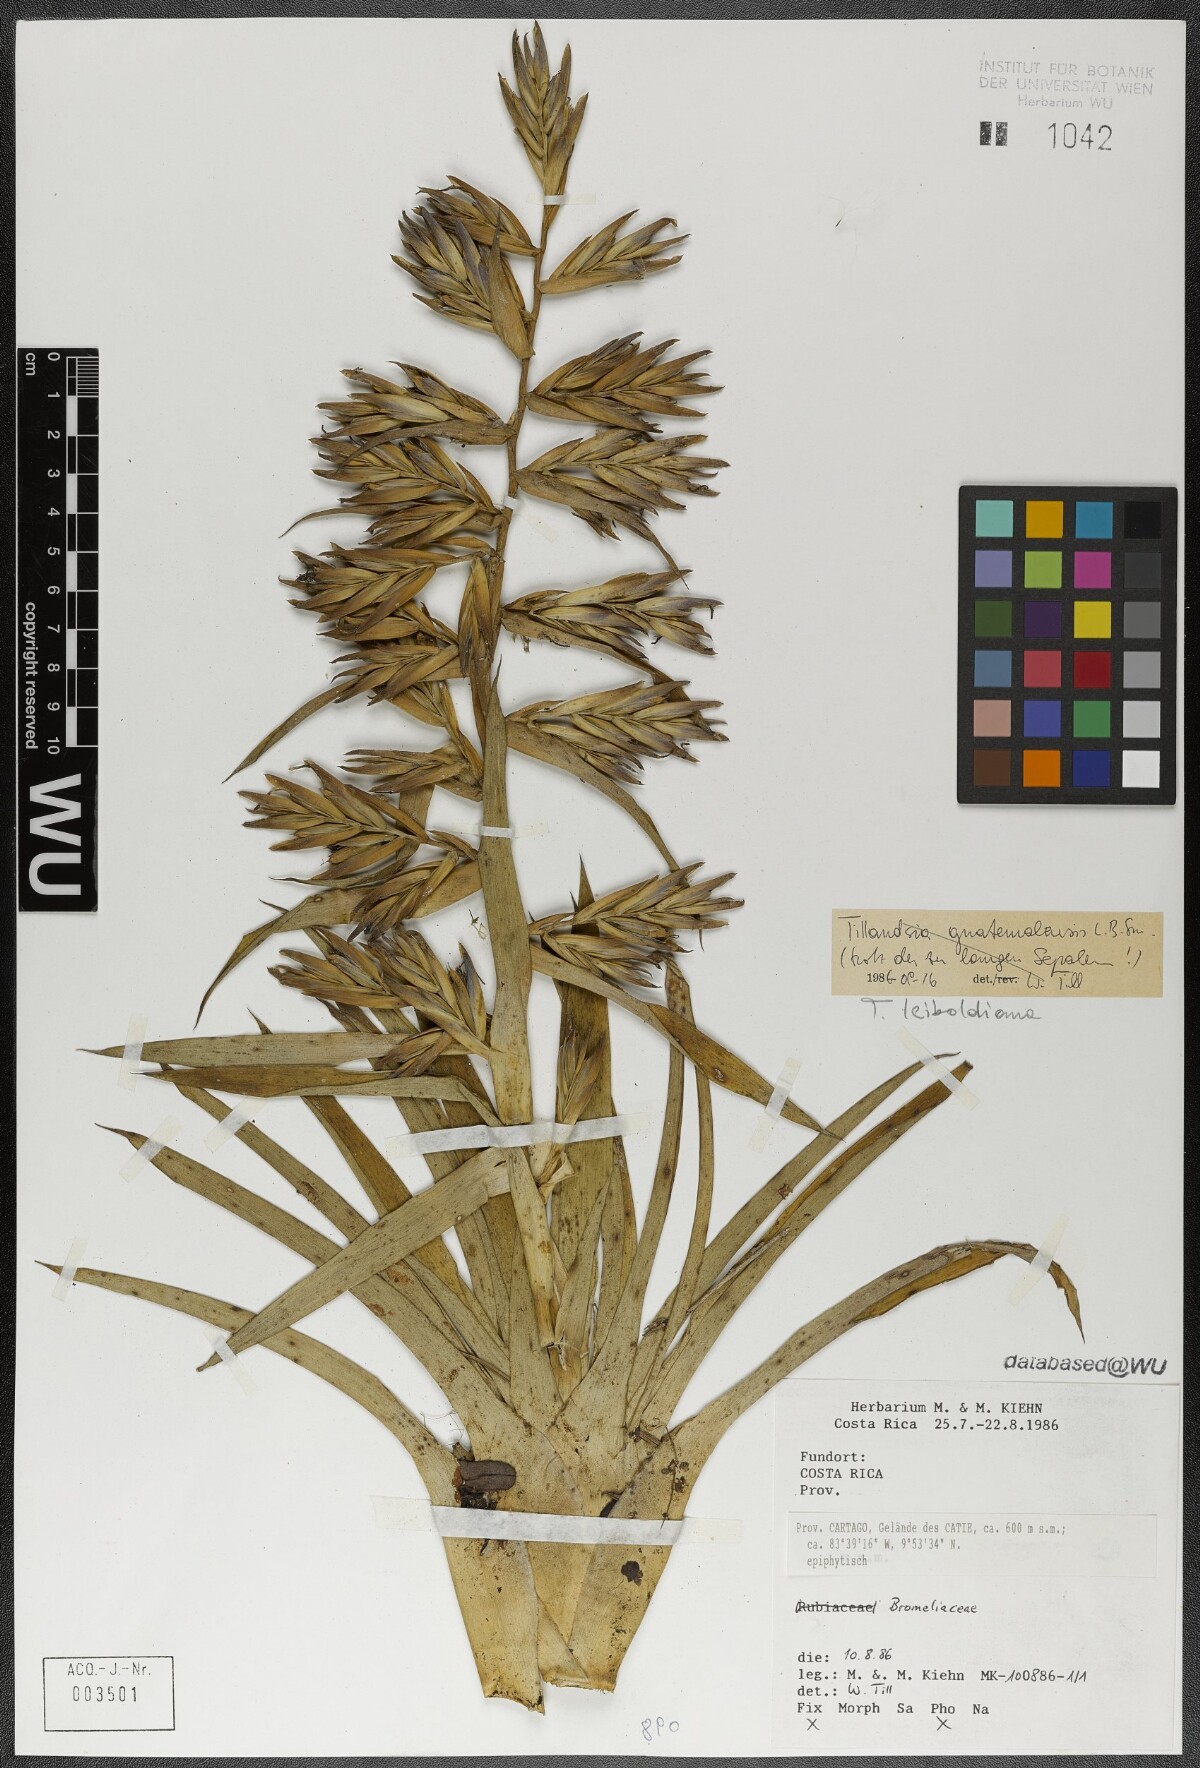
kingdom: Plantae
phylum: Tracheophyta
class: Liliopsida
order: Poales
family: Bromeliaceae
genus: Tillandsia
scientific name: Tillandsia leiboldiana
